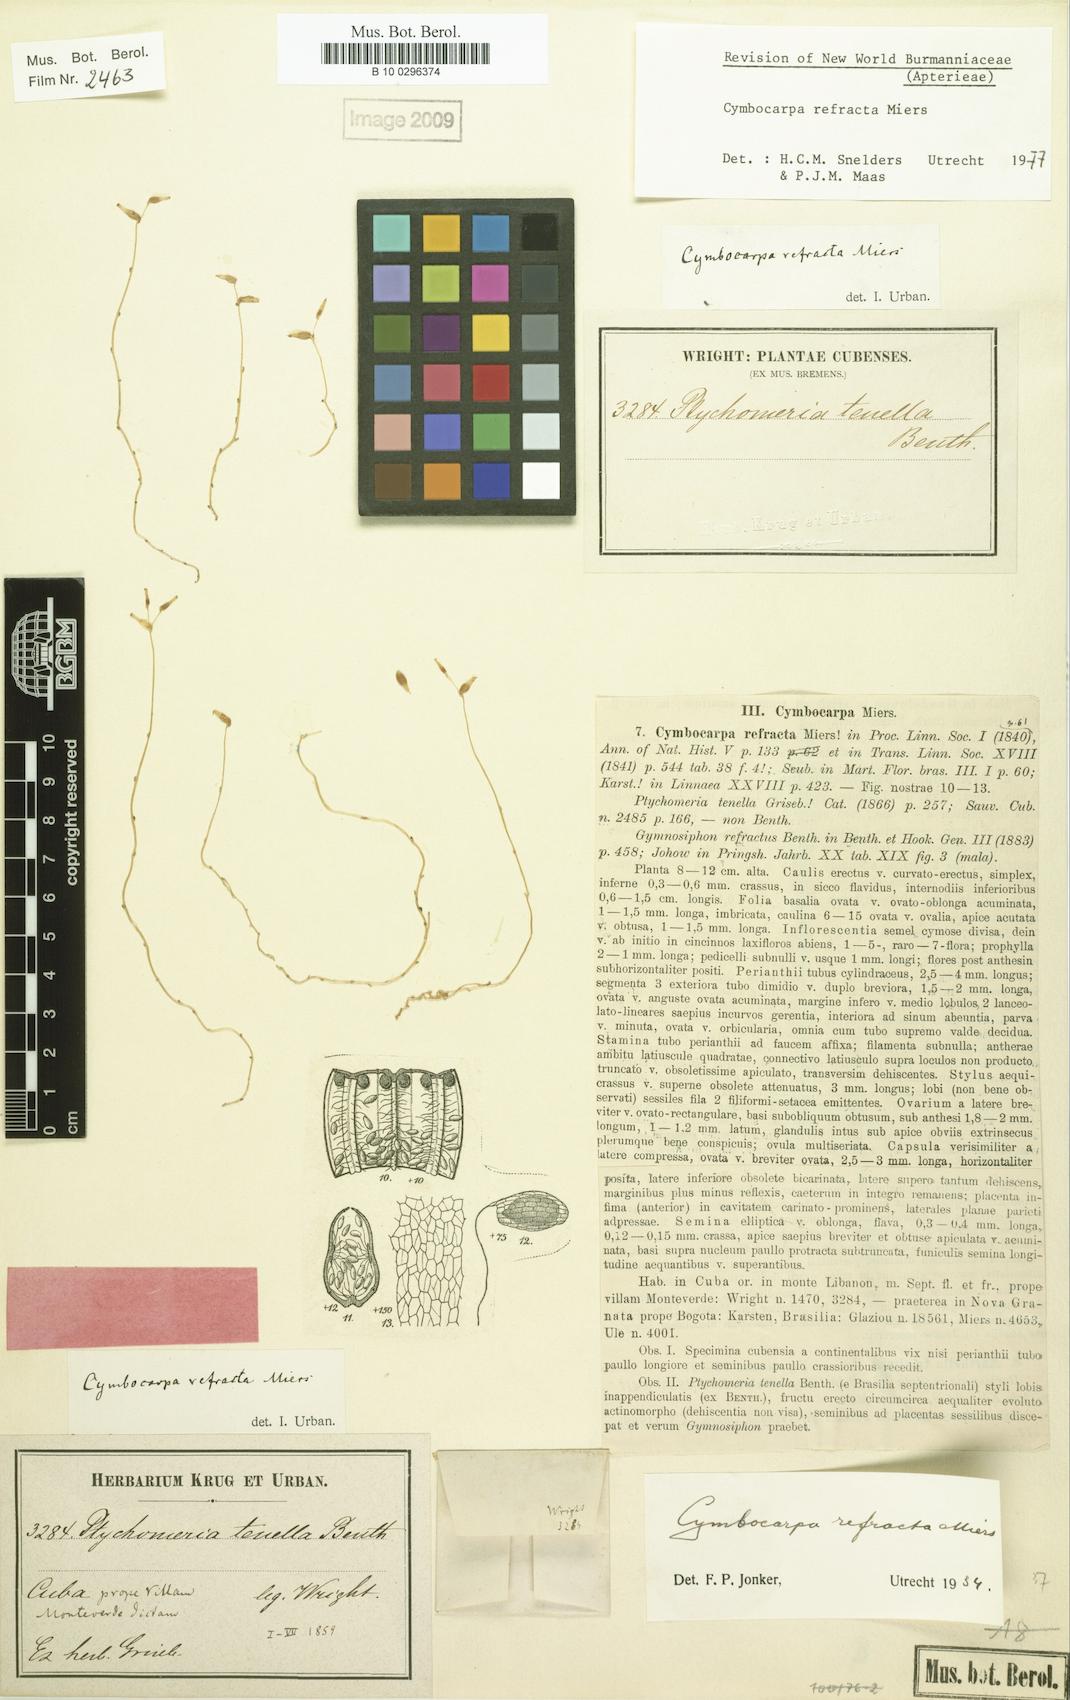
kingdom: Plantae
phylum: Tracheophyta
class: Liliopsida
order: Dioscoreales
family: Burmanniaceae
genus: Gymnosiphon
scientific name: Gymnosiphon refractus
